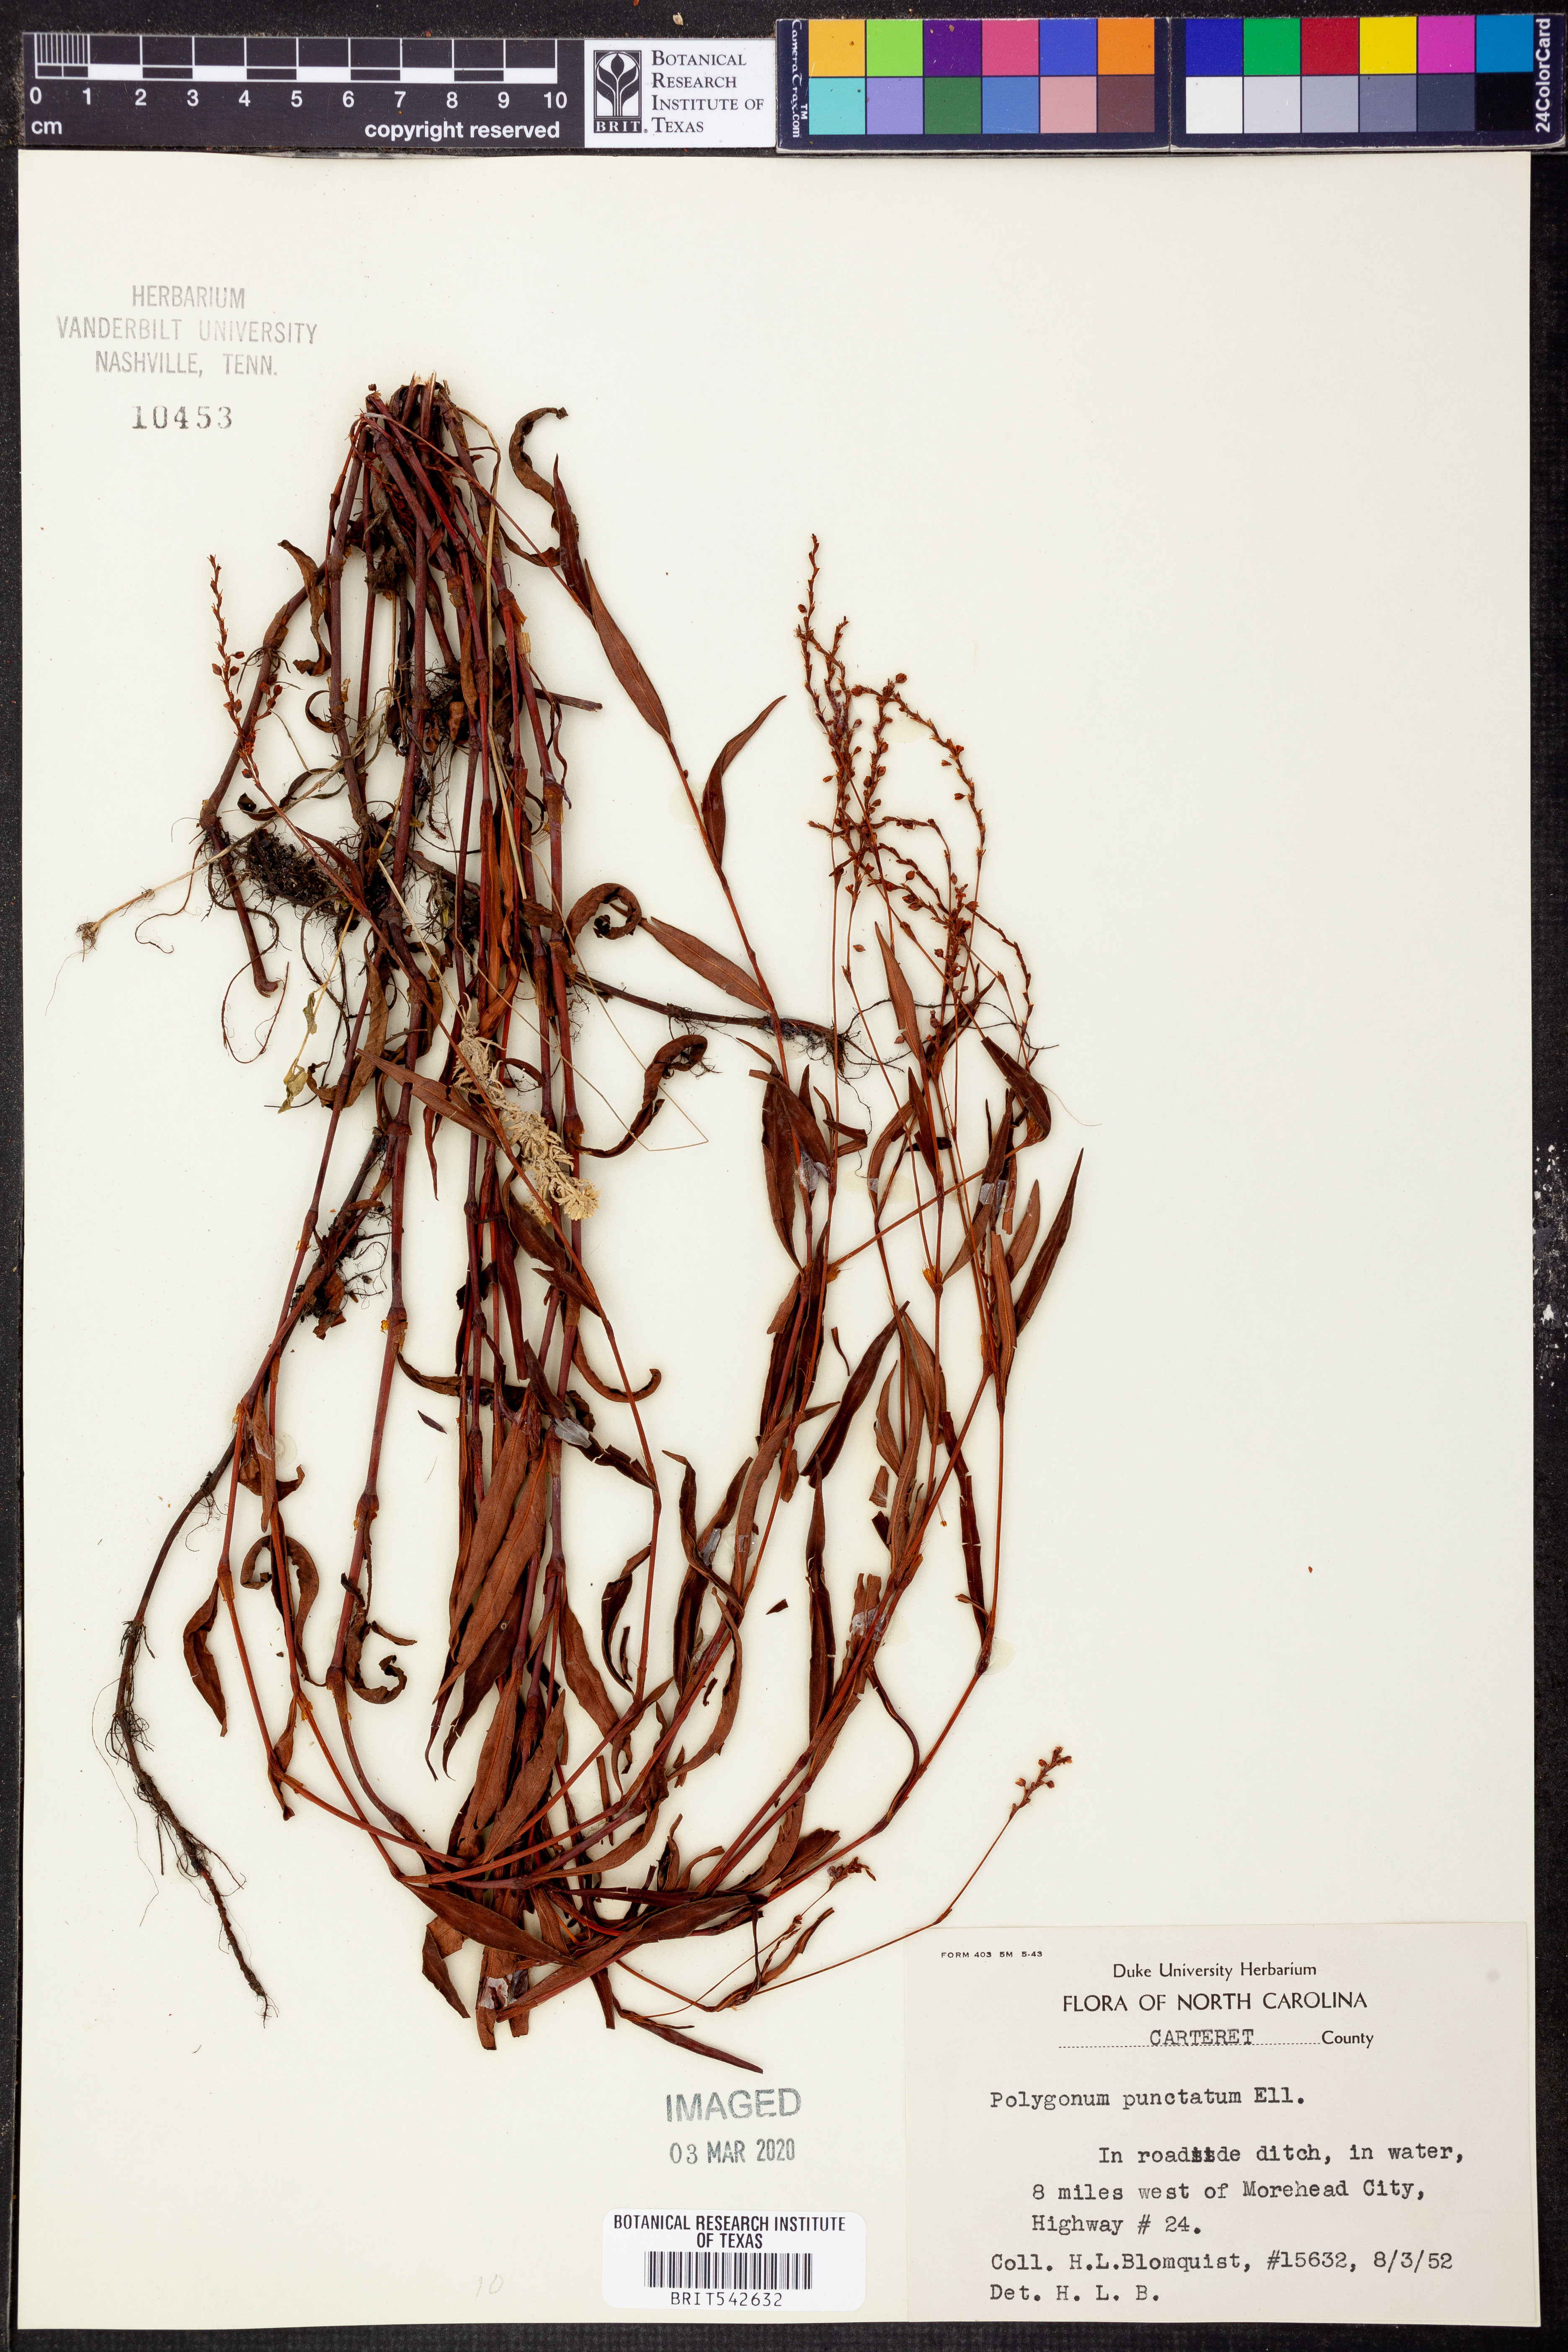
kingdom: Plantae
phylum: Tracheophyta
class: Magnoliopsida
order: Caryophyllales
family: Polygonaceae
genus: Persicaria
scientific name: Persicaria punctata
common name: Dotted smartweed
